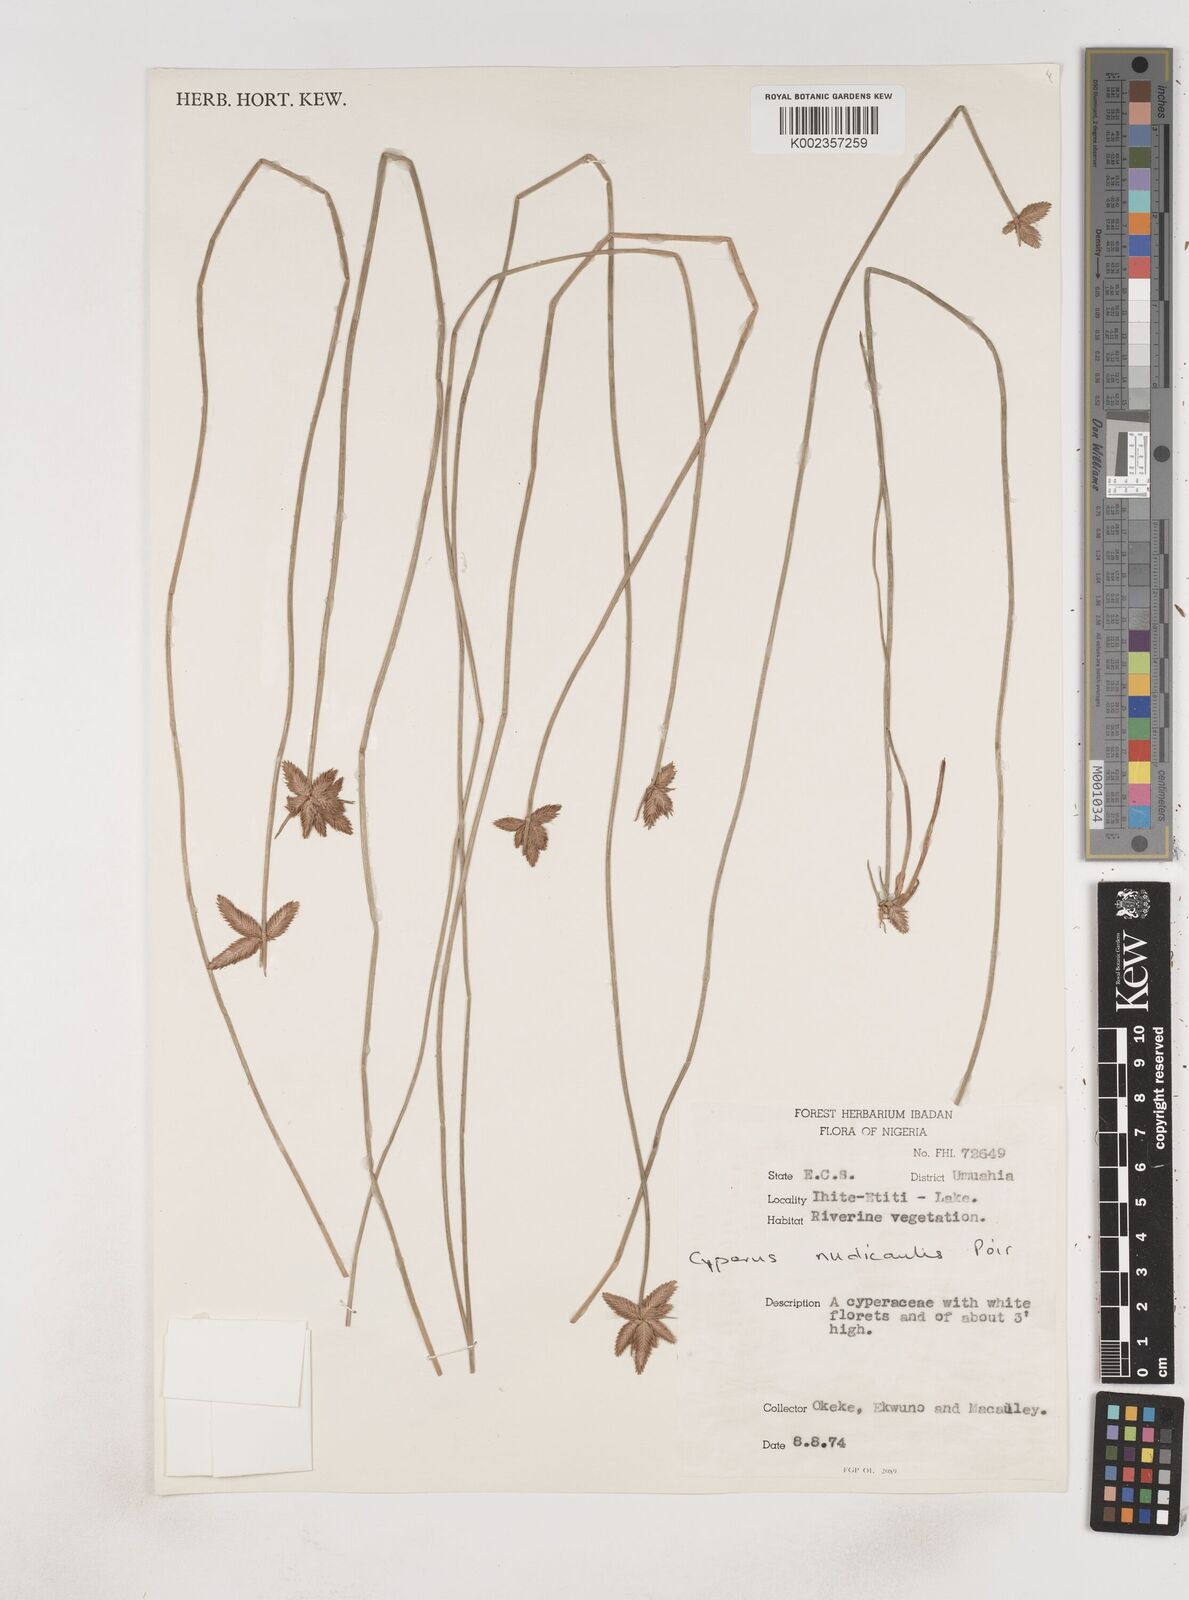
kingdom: Plantae
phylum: Tracheophyta
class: Liliopsida
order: Poales
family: Cyperaceae
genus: Cyperus
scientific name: Cyperus pectinatus
